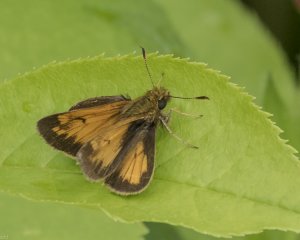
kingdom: Animalia
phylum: Arthropoda
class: Insecta
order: Lepidoptera
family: Hesperiidae
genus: Lon
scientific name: Lon hobomok
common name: Hobomok Skipper
